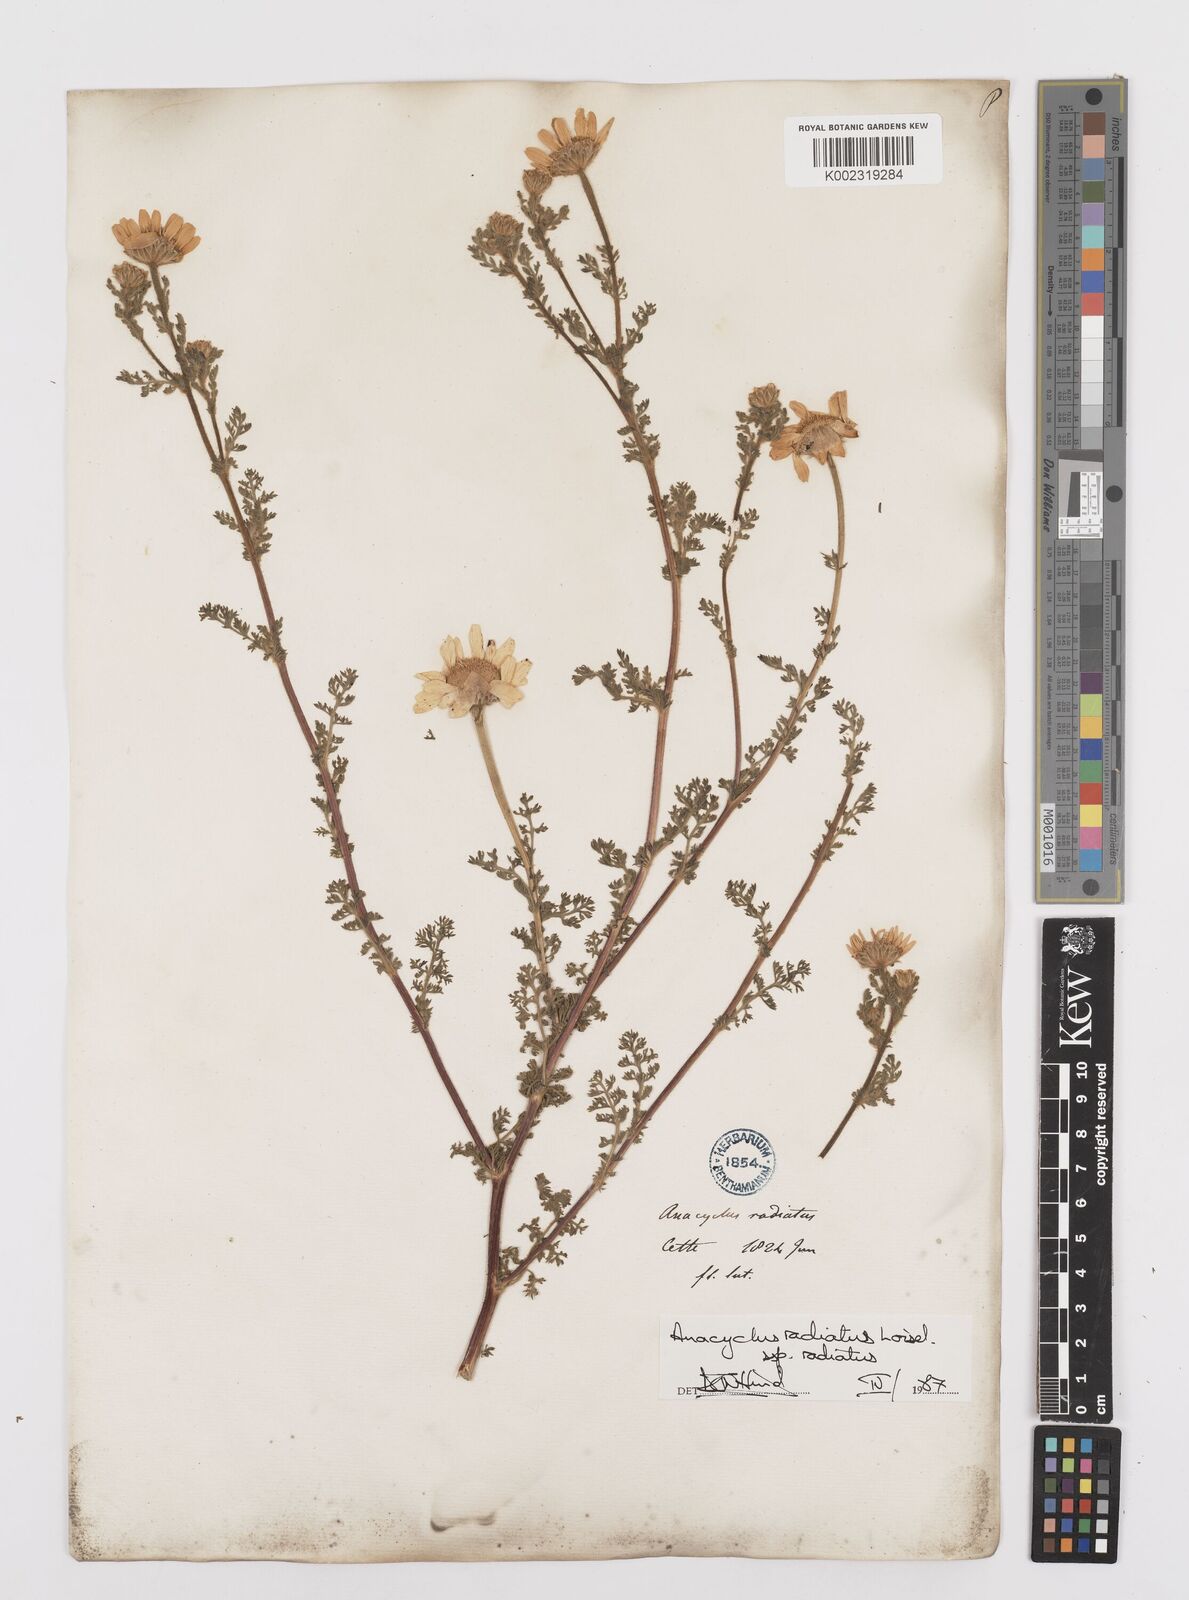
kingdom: Plantae
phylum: Tracheophyta
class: Magnoliopsida
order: Asterales
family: Asteraceae
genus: Anacyclus
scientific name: Anacyclus radiatus
